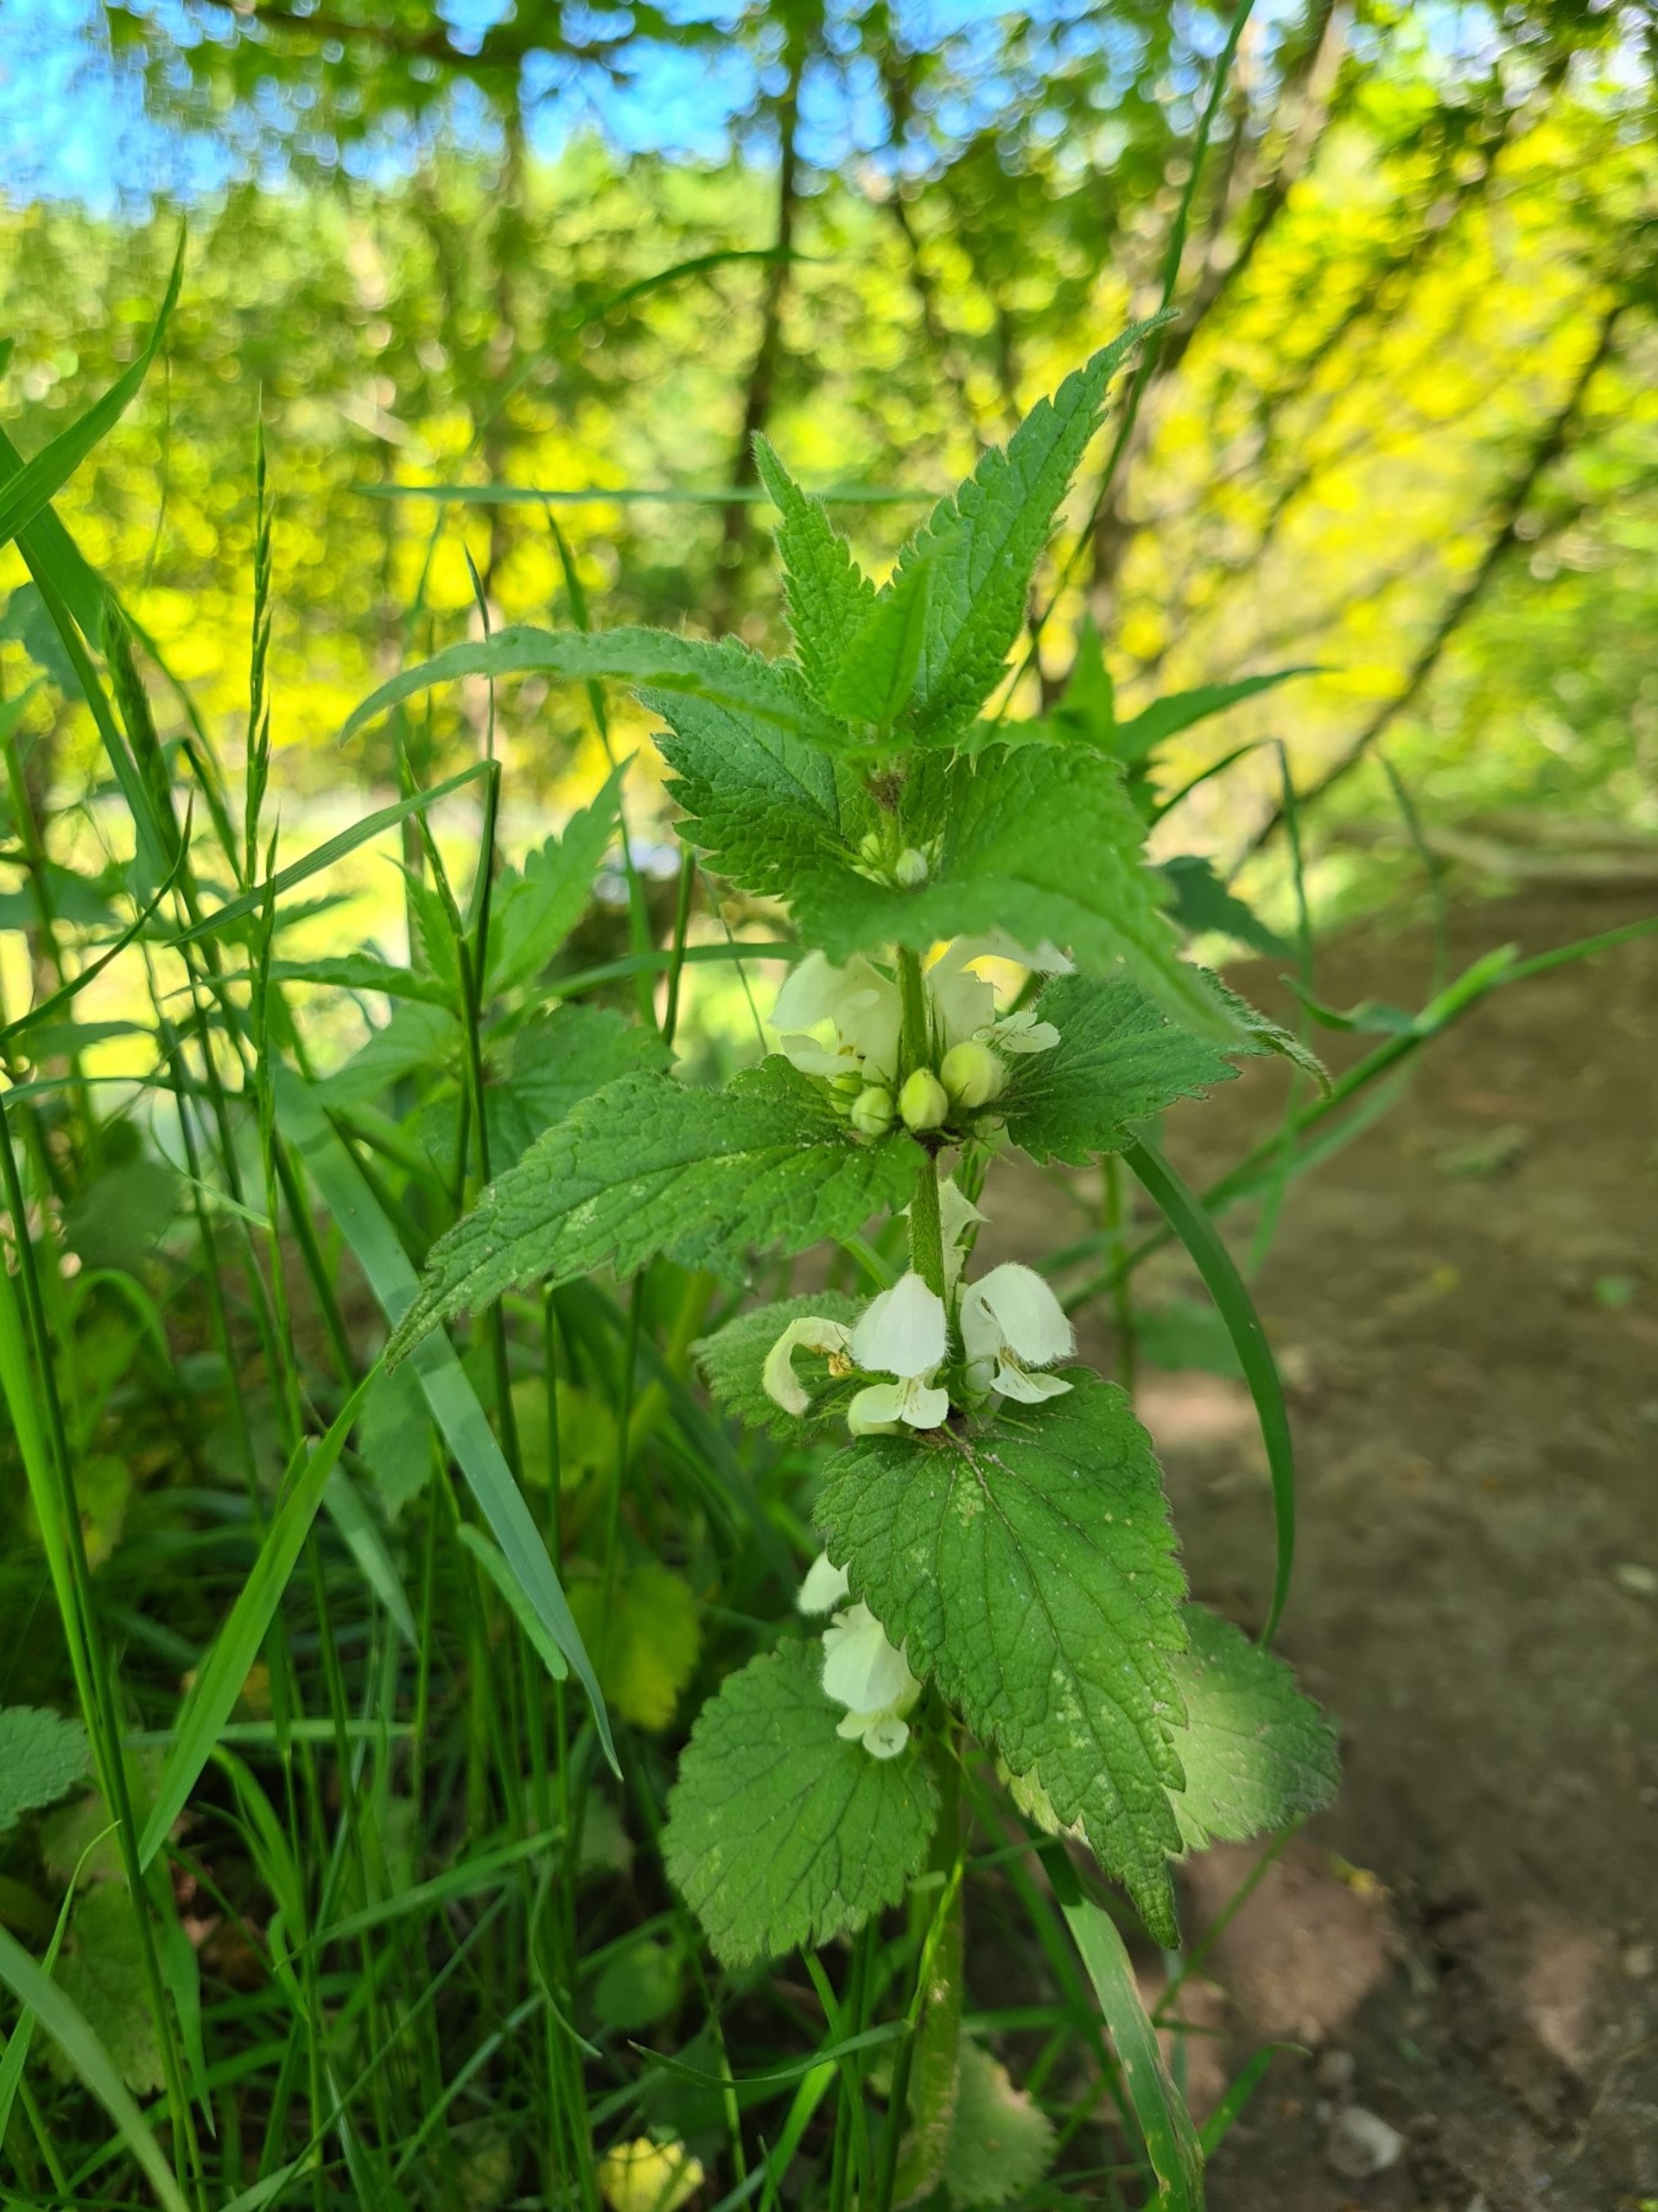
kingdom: Plantae
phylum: Tracheophyta
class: Magnoliopsida
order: Lamiales
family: Lamiaceae
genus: Lamium
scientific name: Lamium album
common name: Døvnælde
